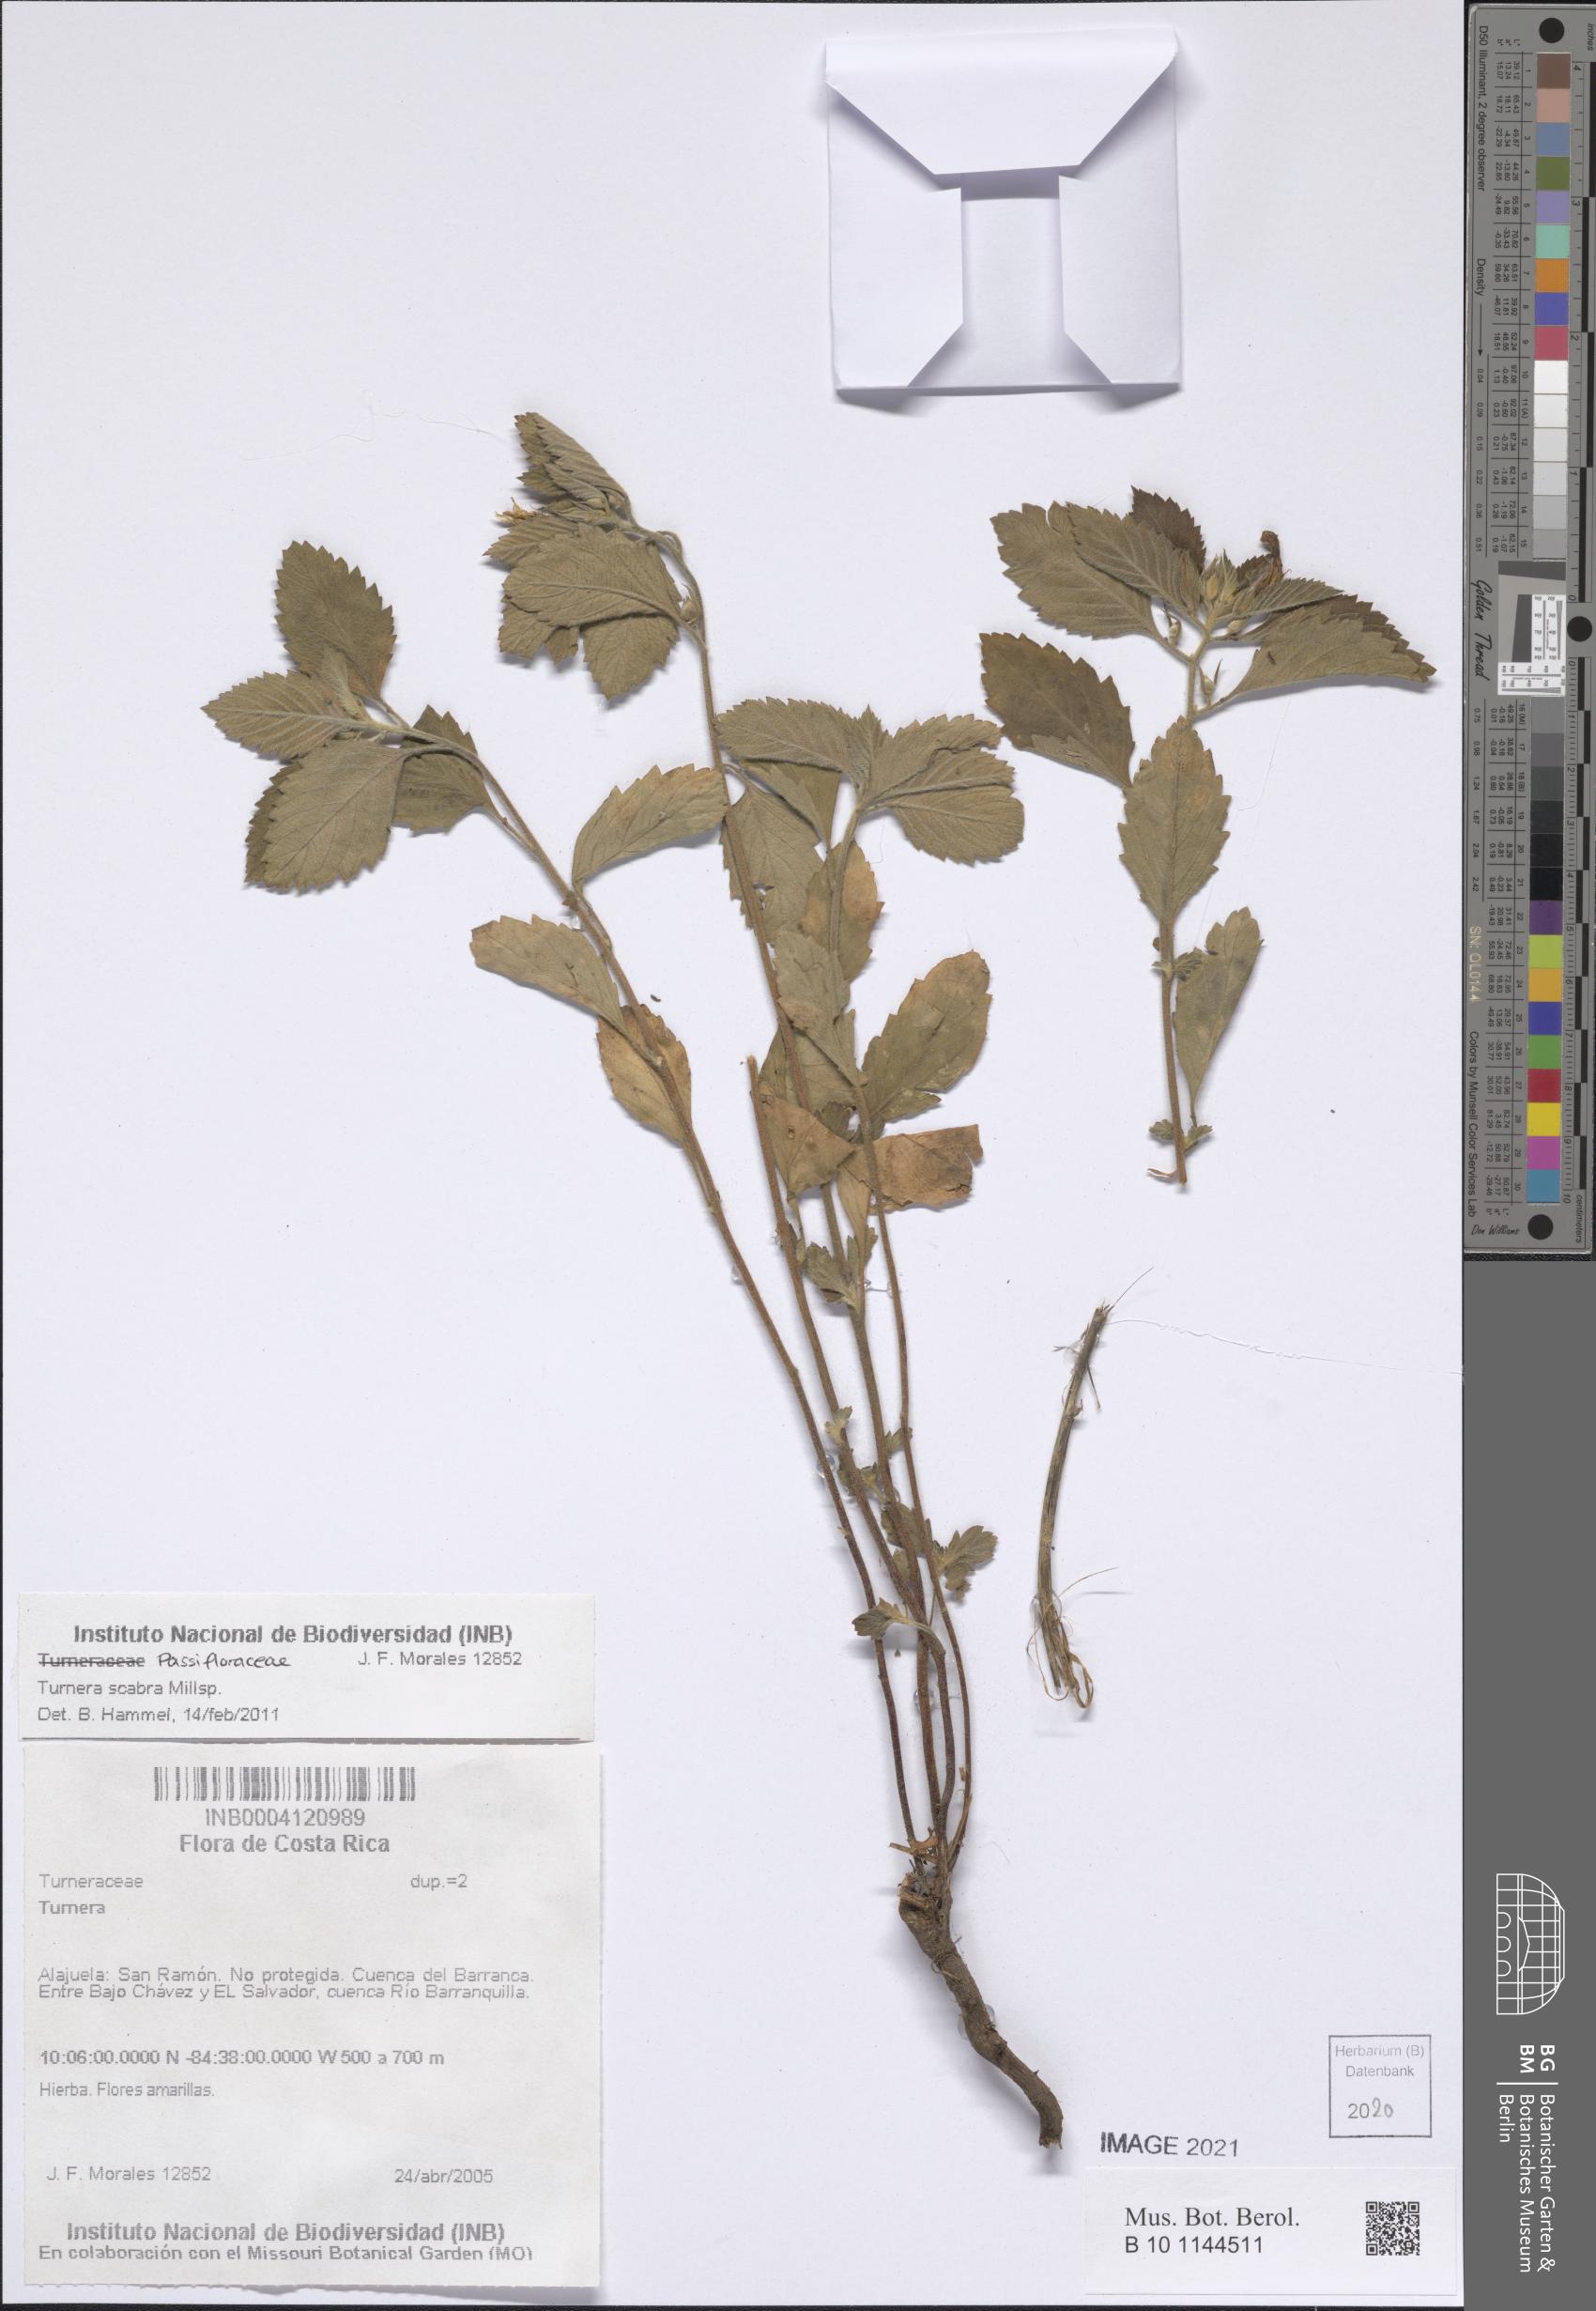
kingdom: Plantae
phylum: Tracheophyta
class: Magnoliopsida
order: Malpighiales
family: Turneraceae
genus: Turnera
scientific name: Turnera scabra
